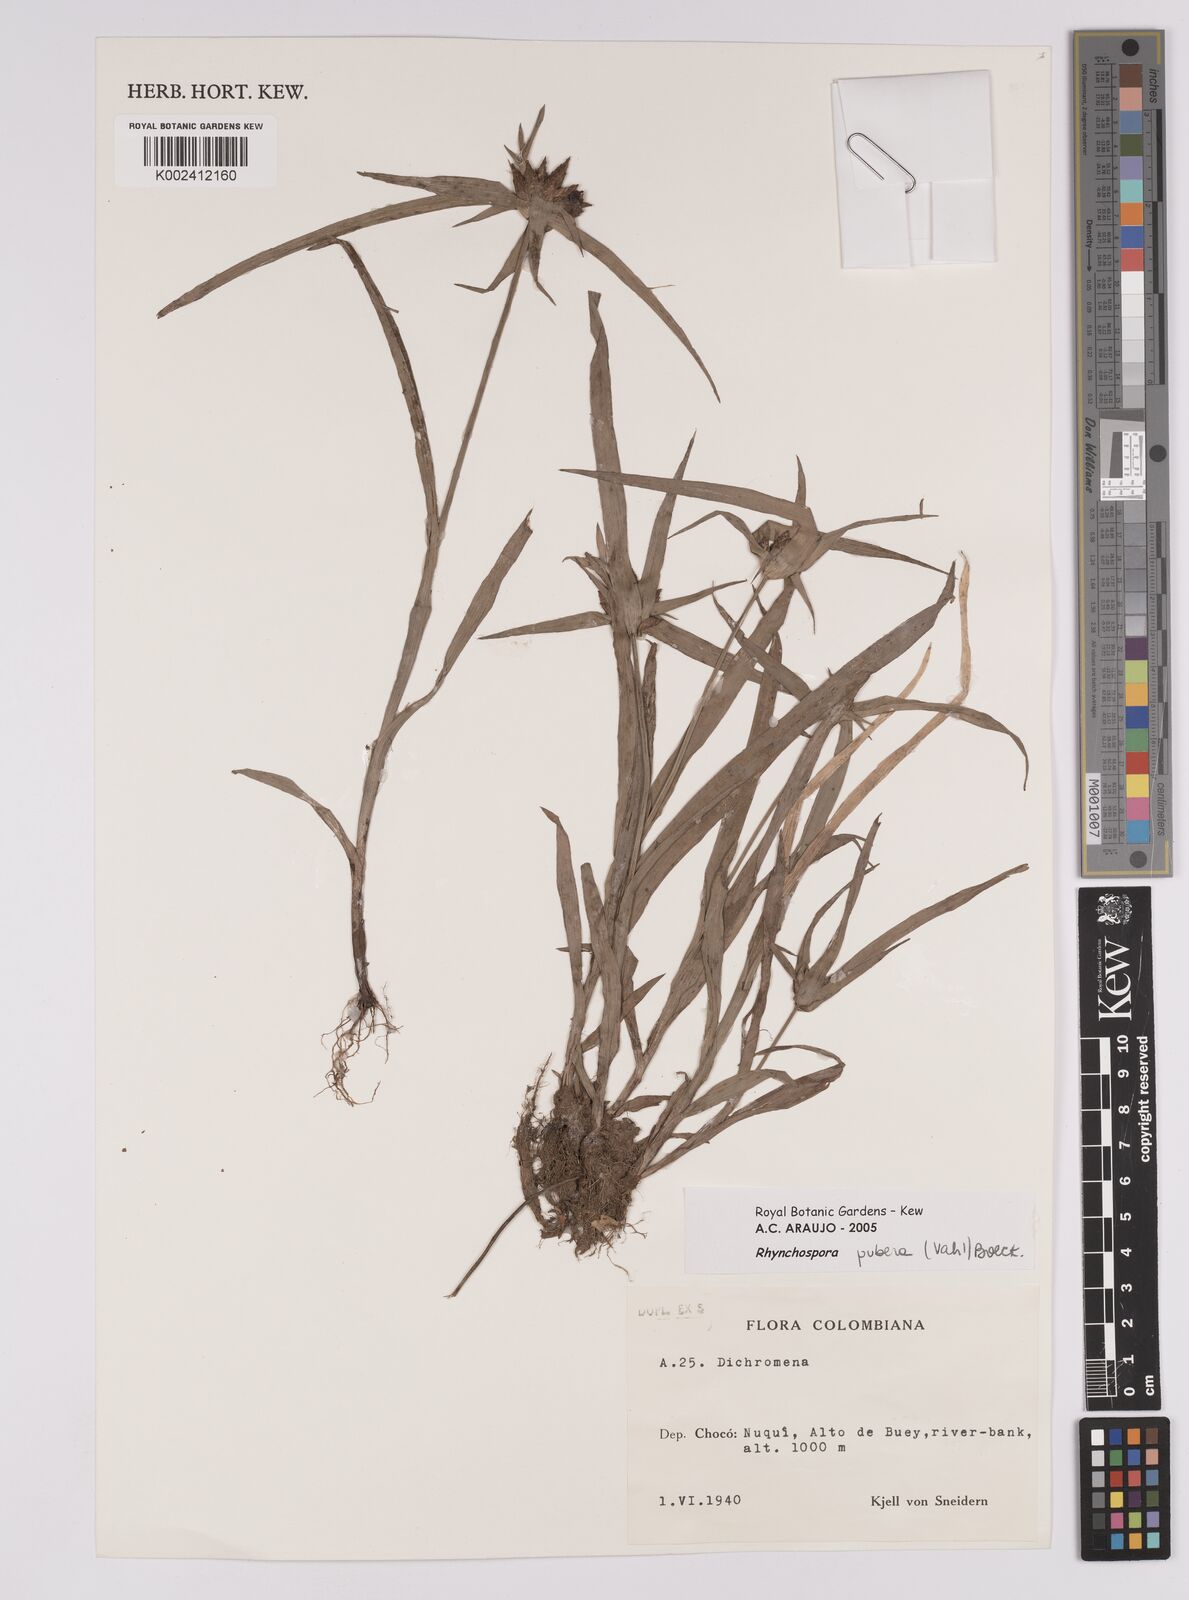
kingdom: Plantae
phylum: Tracheophyta
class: Liliopsida
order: Poales
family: Cyperaceae
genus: Rhynchospora
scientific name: Rhynchospora pubera
